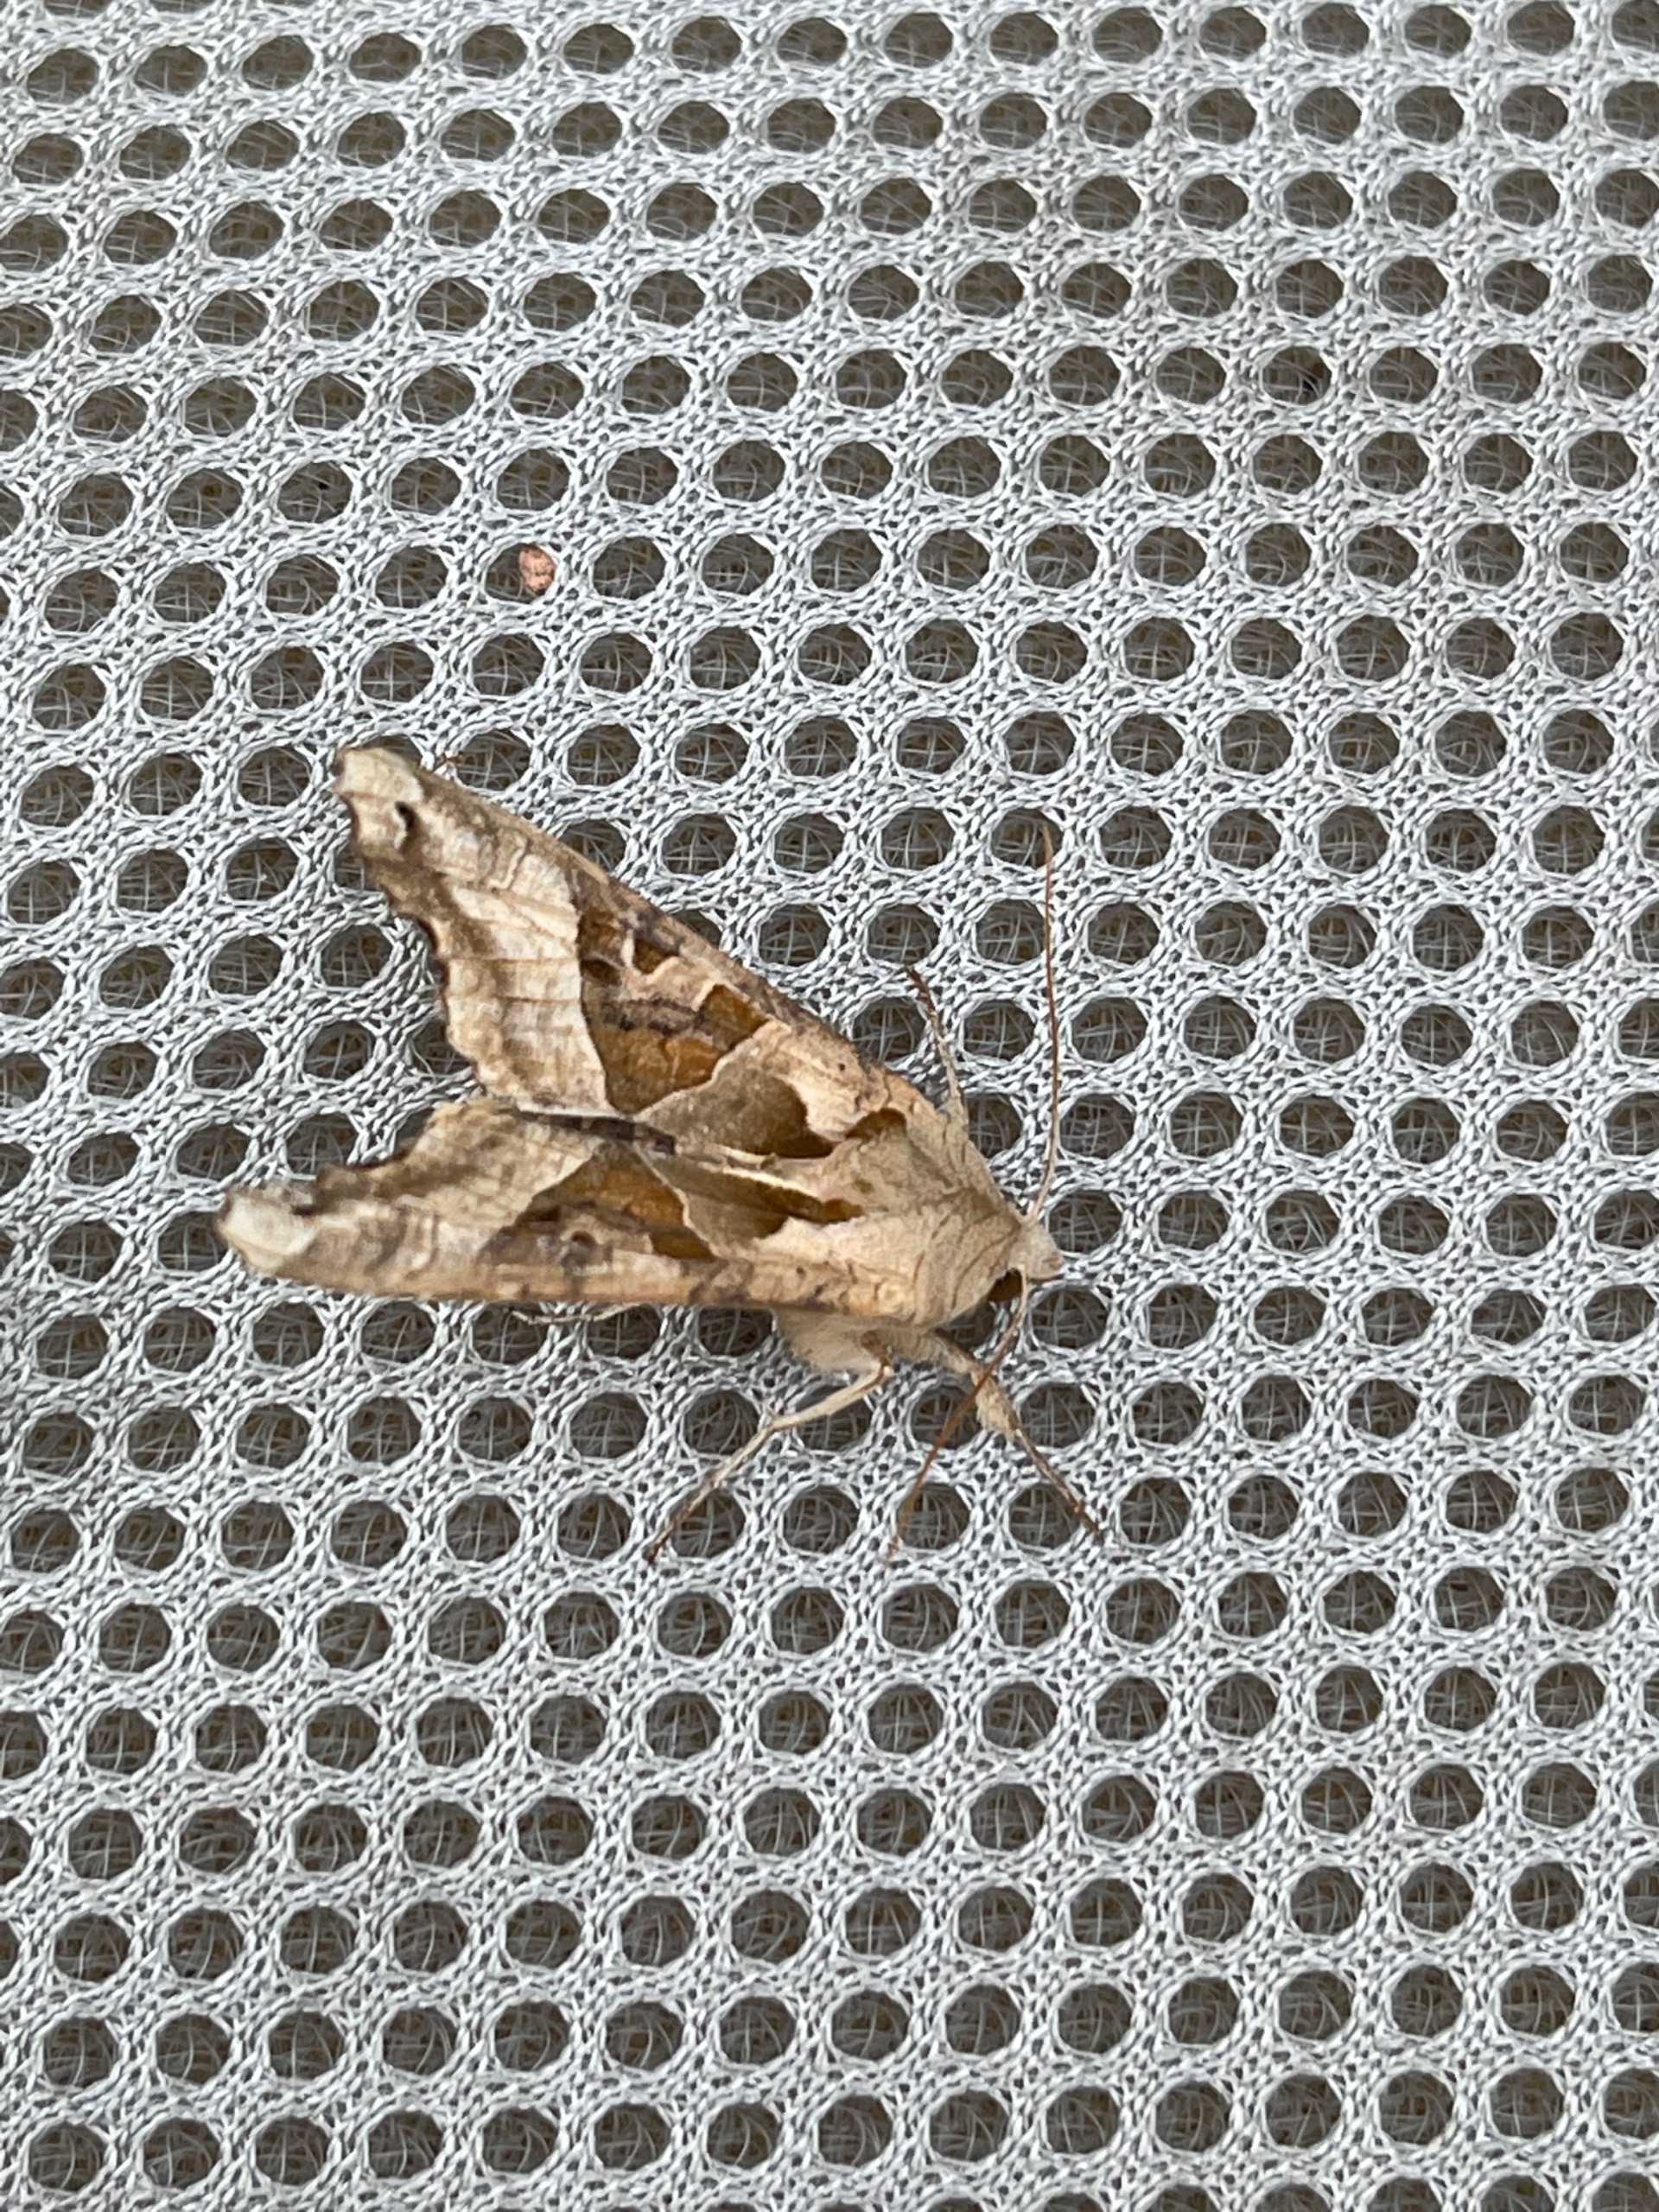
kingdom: Animalia
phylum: Arthropoda
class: Insecta
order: Lepidoptera
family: Noctuidae
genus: Phlogophora
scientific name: Phlogophora meticulosa
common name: Agatugle
